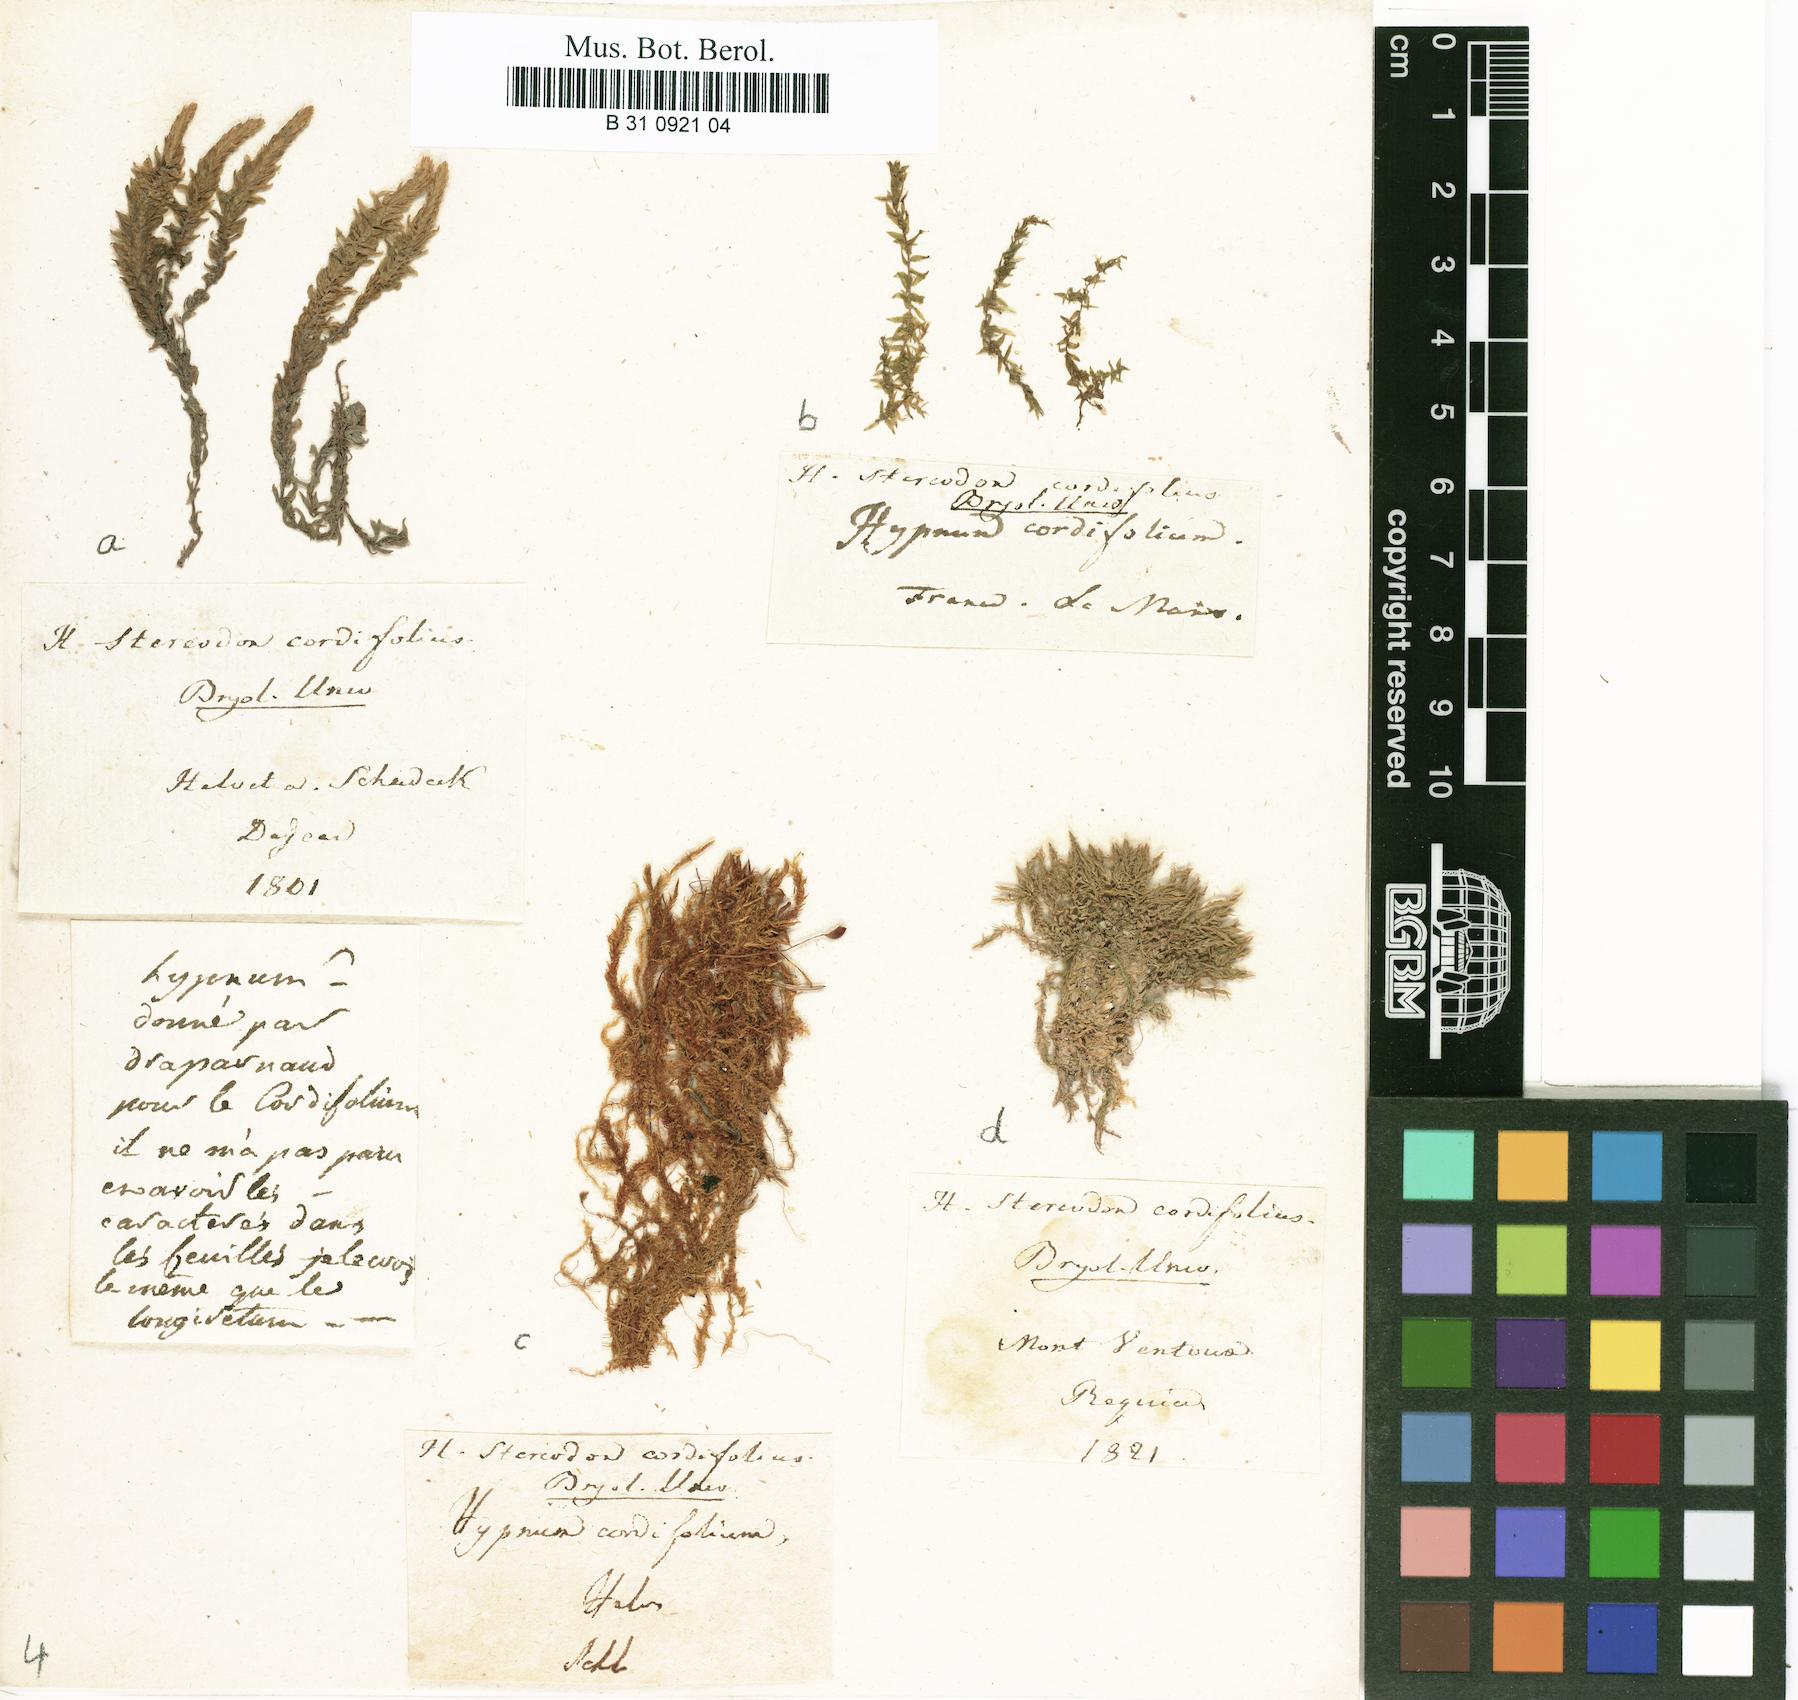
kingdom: Plantae
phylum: Bryophyta
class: Bryopsida
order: Hypnales
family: Calliergonaceae
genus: Calliergon
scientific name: Calliergon cordifolium
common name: Heart-leaved spear moss
